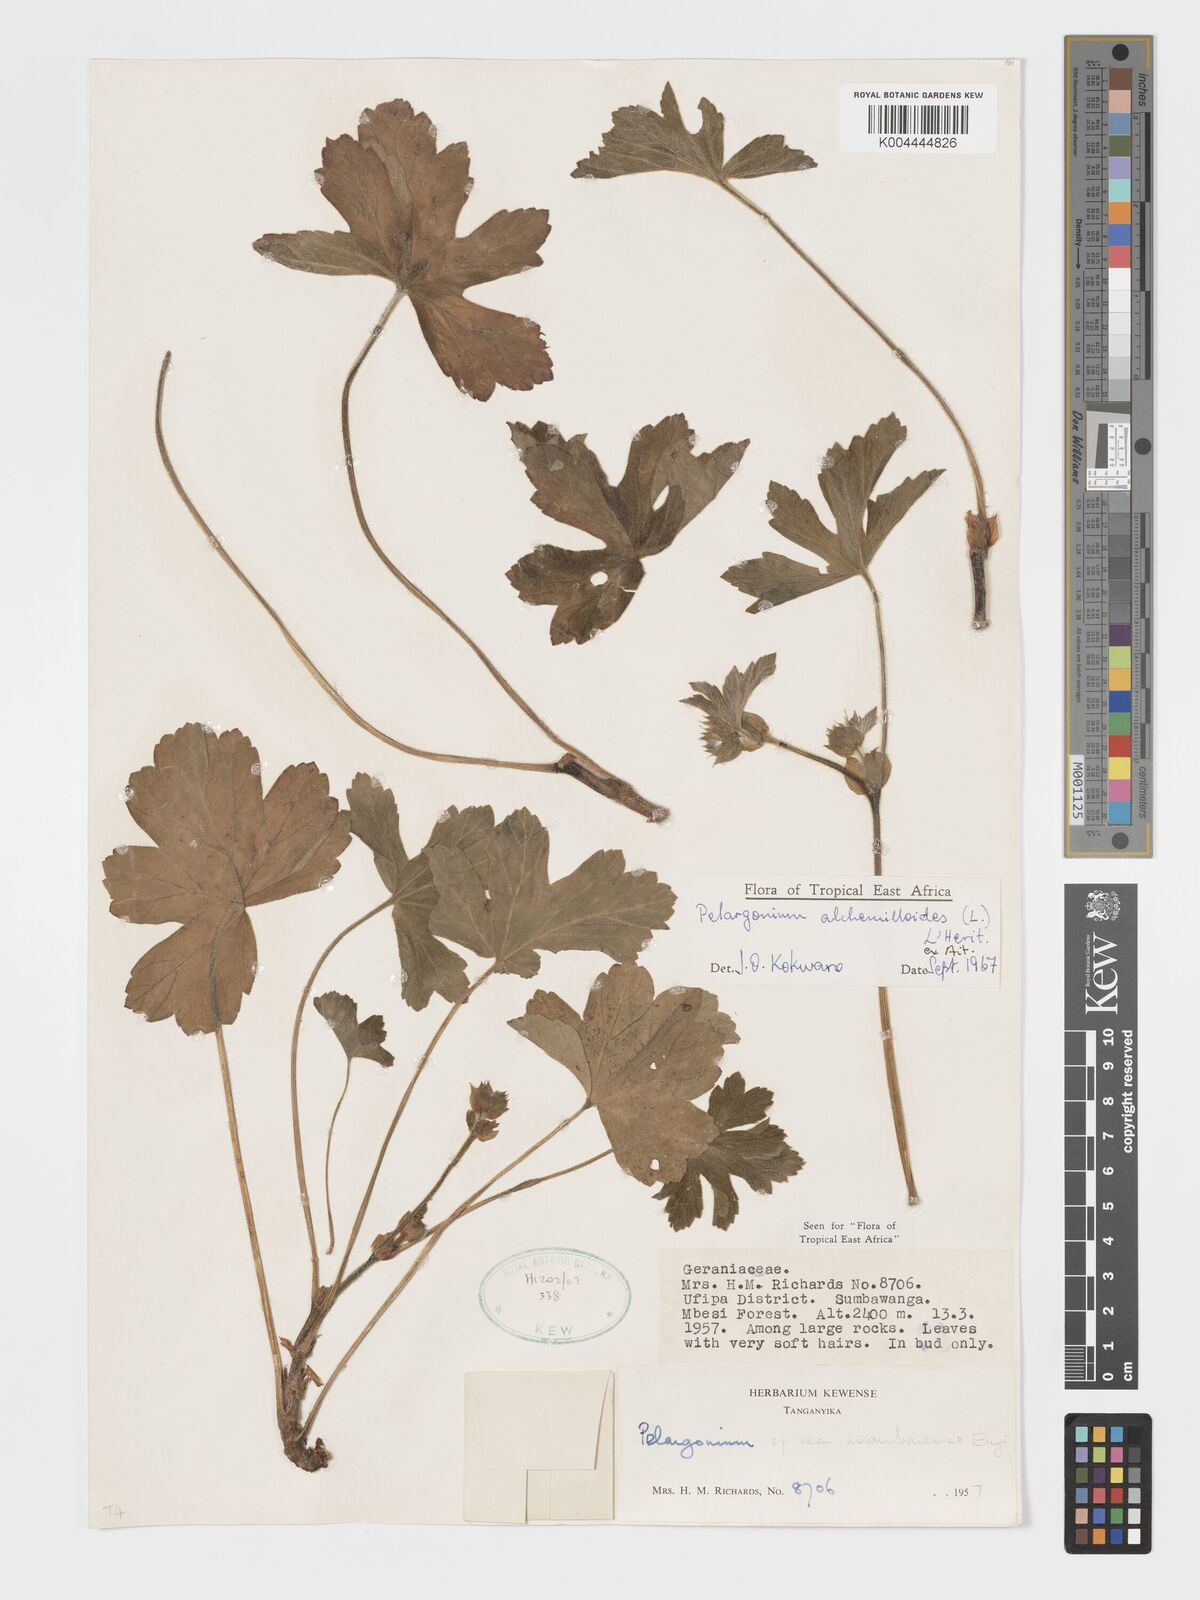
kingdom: Plantae
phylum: Tracheophyta
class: Magnoliopsida
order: Geraniales
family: Geraniaceae
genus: Pelargonium
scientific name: Pelargonium multibracteatum
